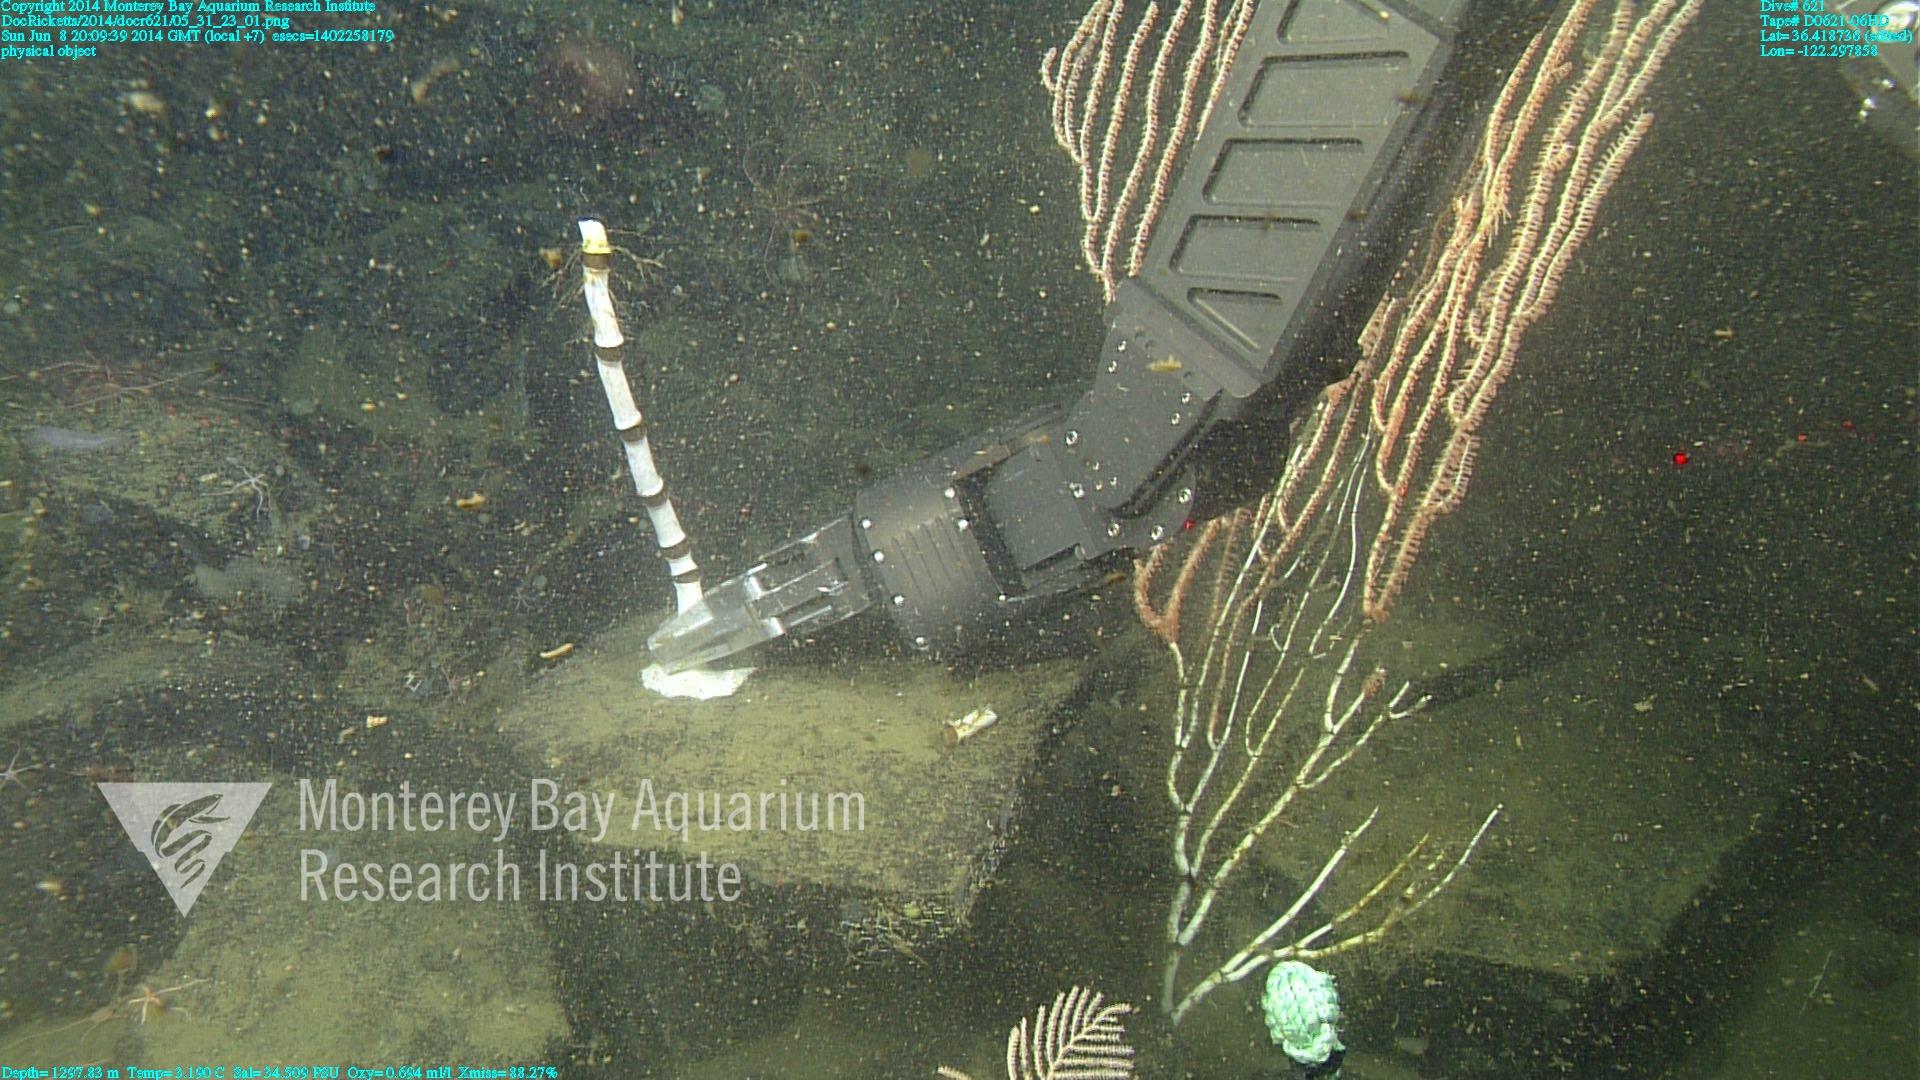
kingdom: Animalia
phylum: Cnidaria
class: Anthozoa
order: Scleralcyonacea
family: Keratoisididae
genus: Isidella
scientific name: Isidella
